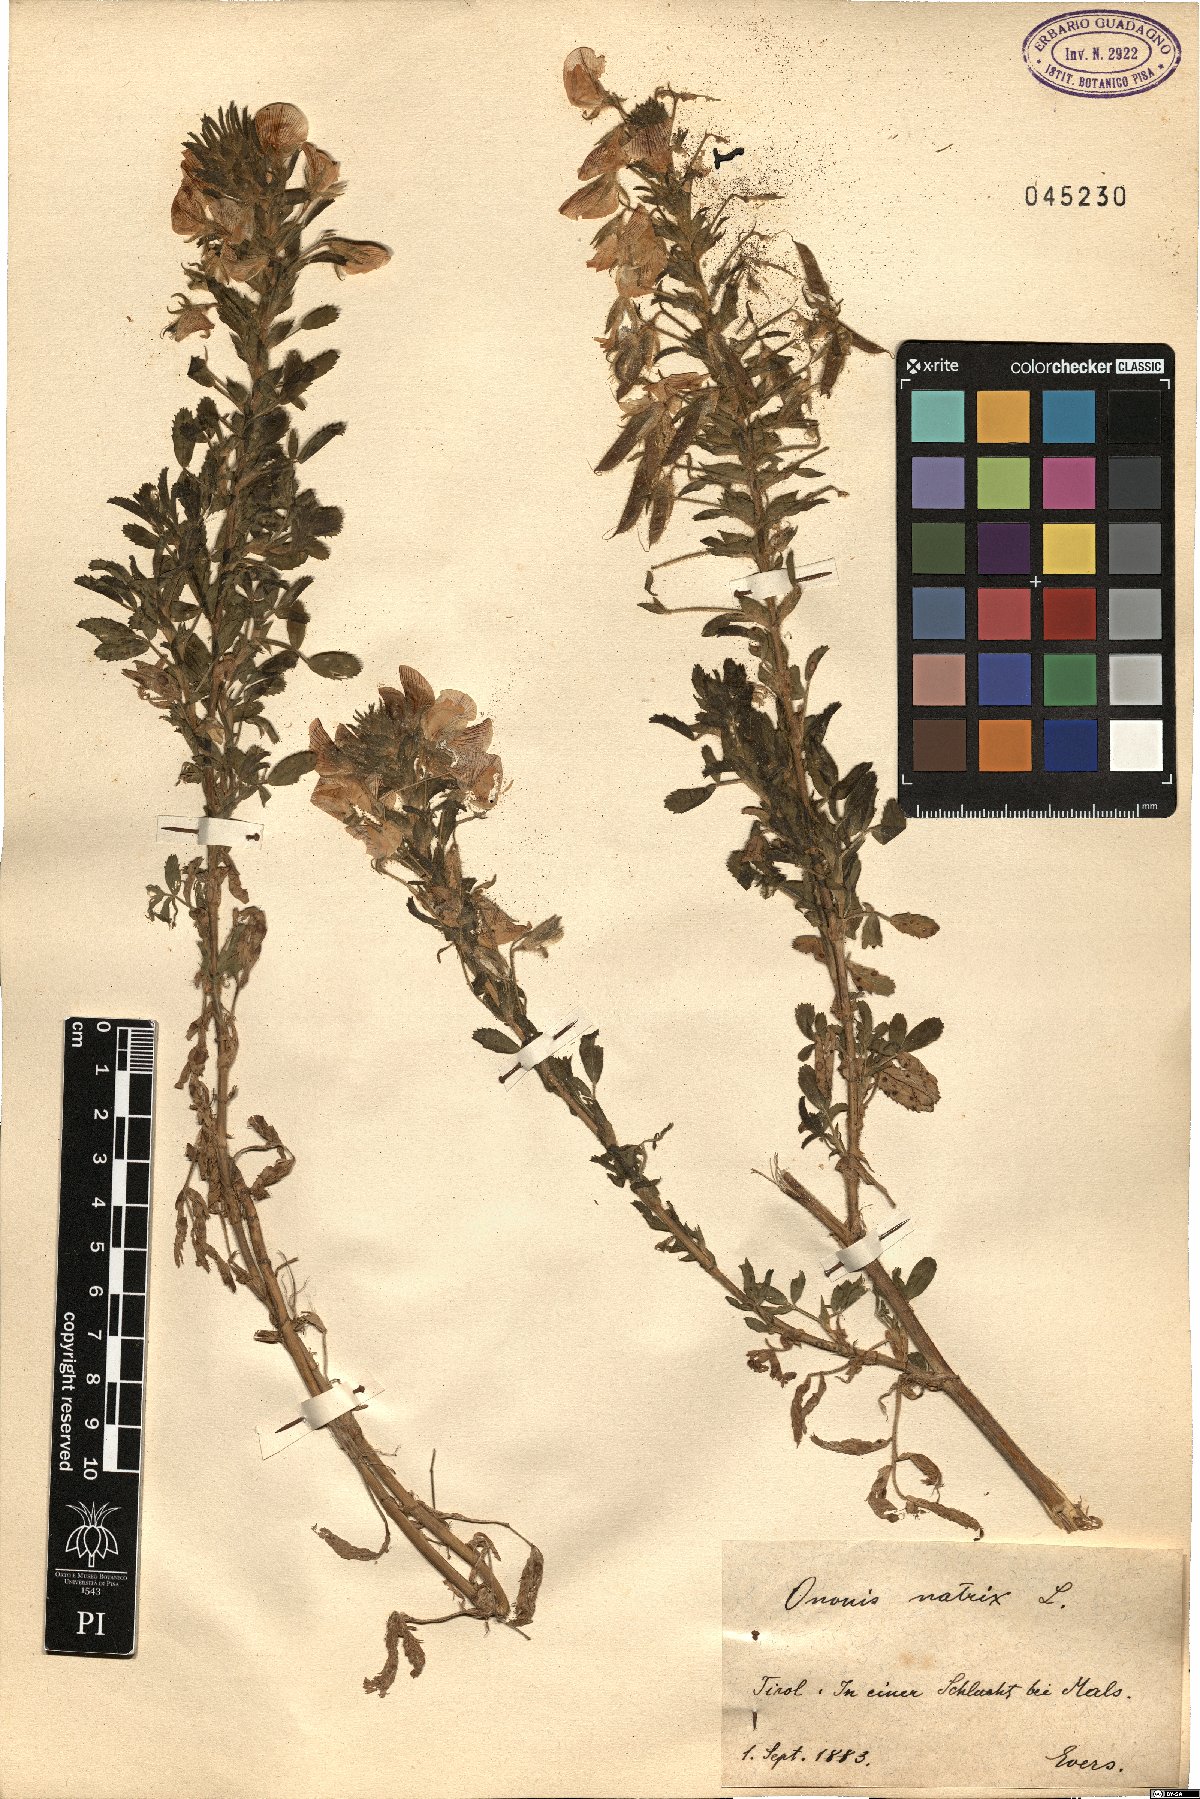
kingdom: Plantae
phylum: Tracheophyta
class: Magnoliopsida
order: Fabales
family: Fabaceae
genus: Ononis
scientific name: Ononis natrix
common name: Yellow restharrow
